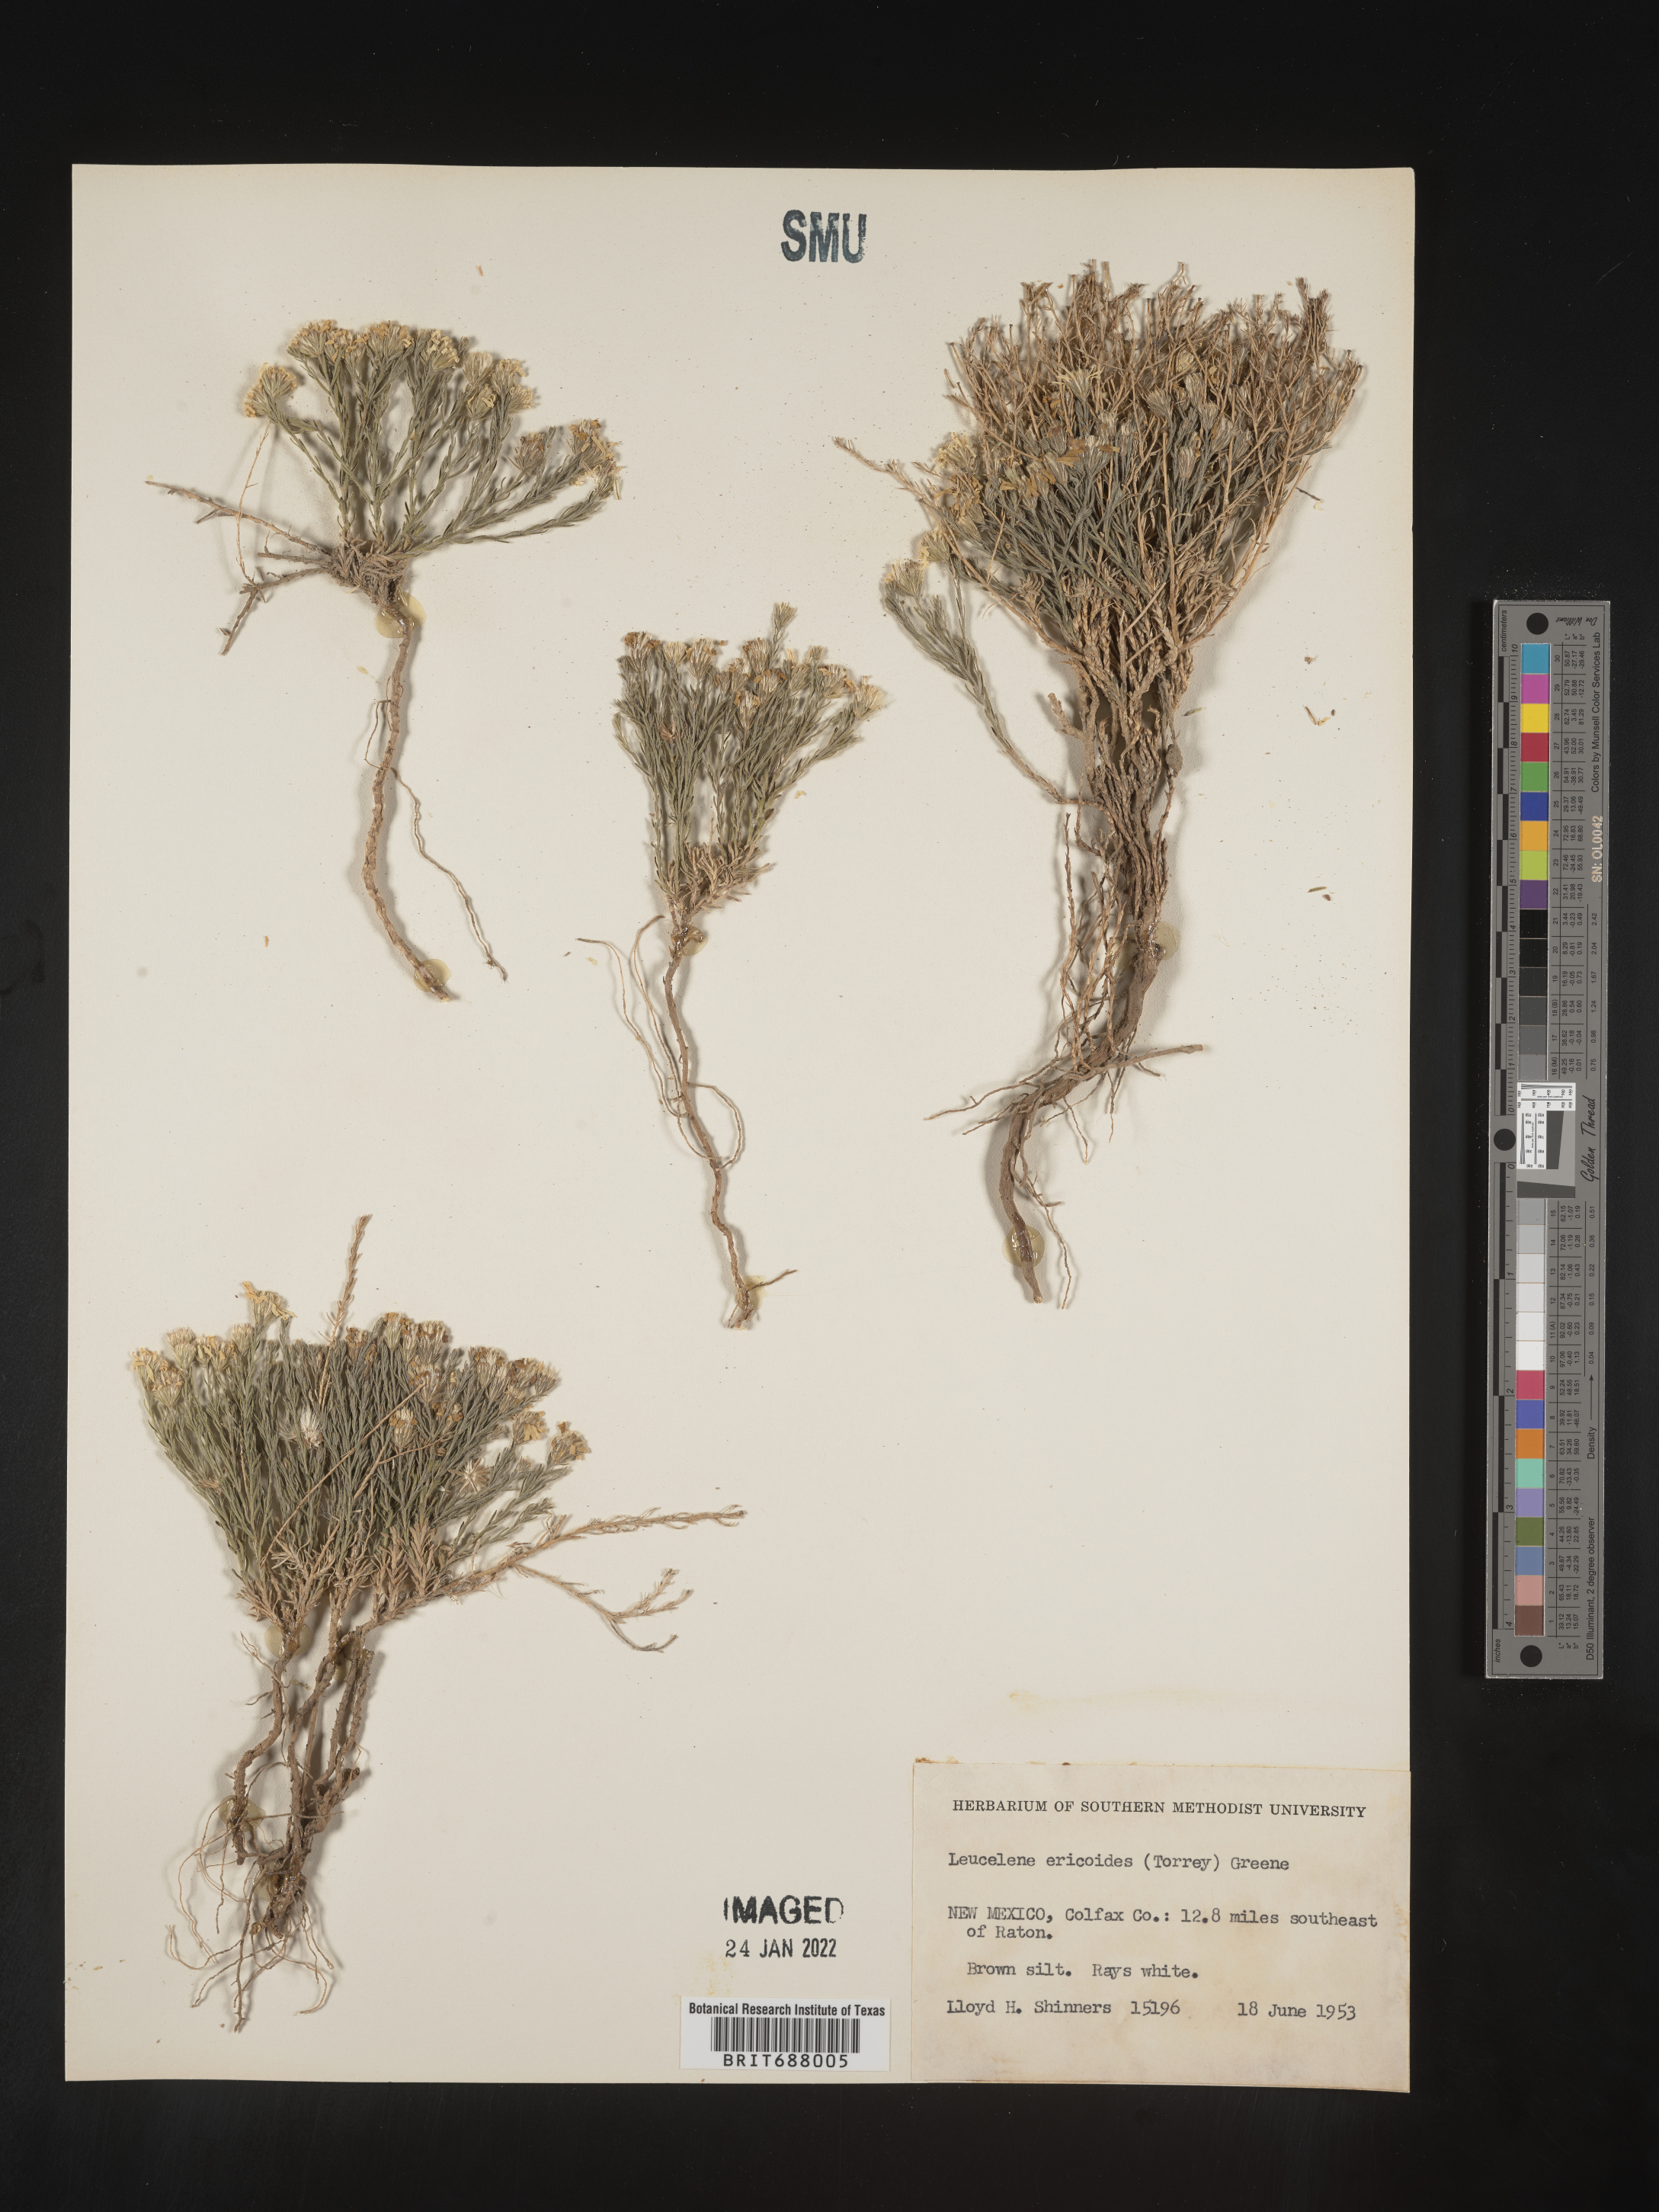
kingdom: Plantae
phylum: Tracheophyta
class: Magnoliopsida
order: Asterales
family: Asteraceae
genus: Chaetopappa
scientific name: Chaetopappa ericoides
